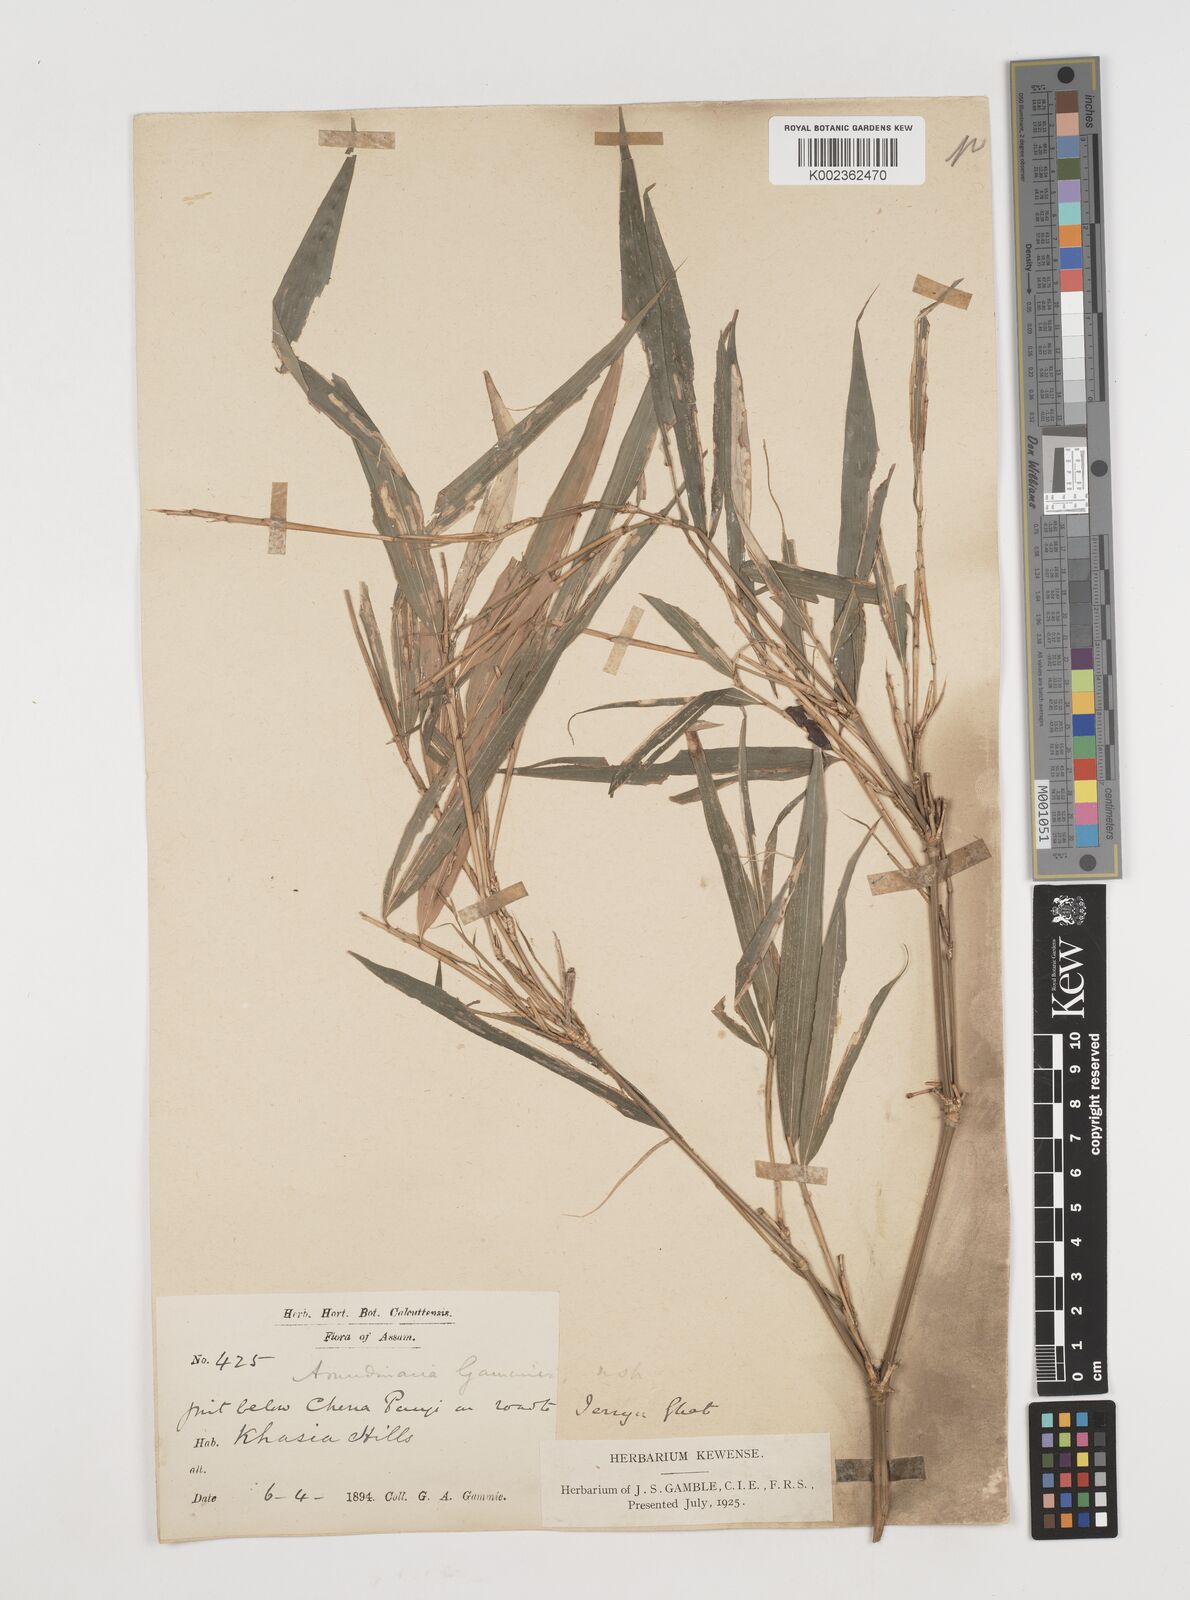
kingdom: Plantae
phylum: Tracheophyta
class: Liliopsida
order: Poales
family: Poaceae
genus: Chimonocalamus
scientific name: Chimonocalamus griffithianus
